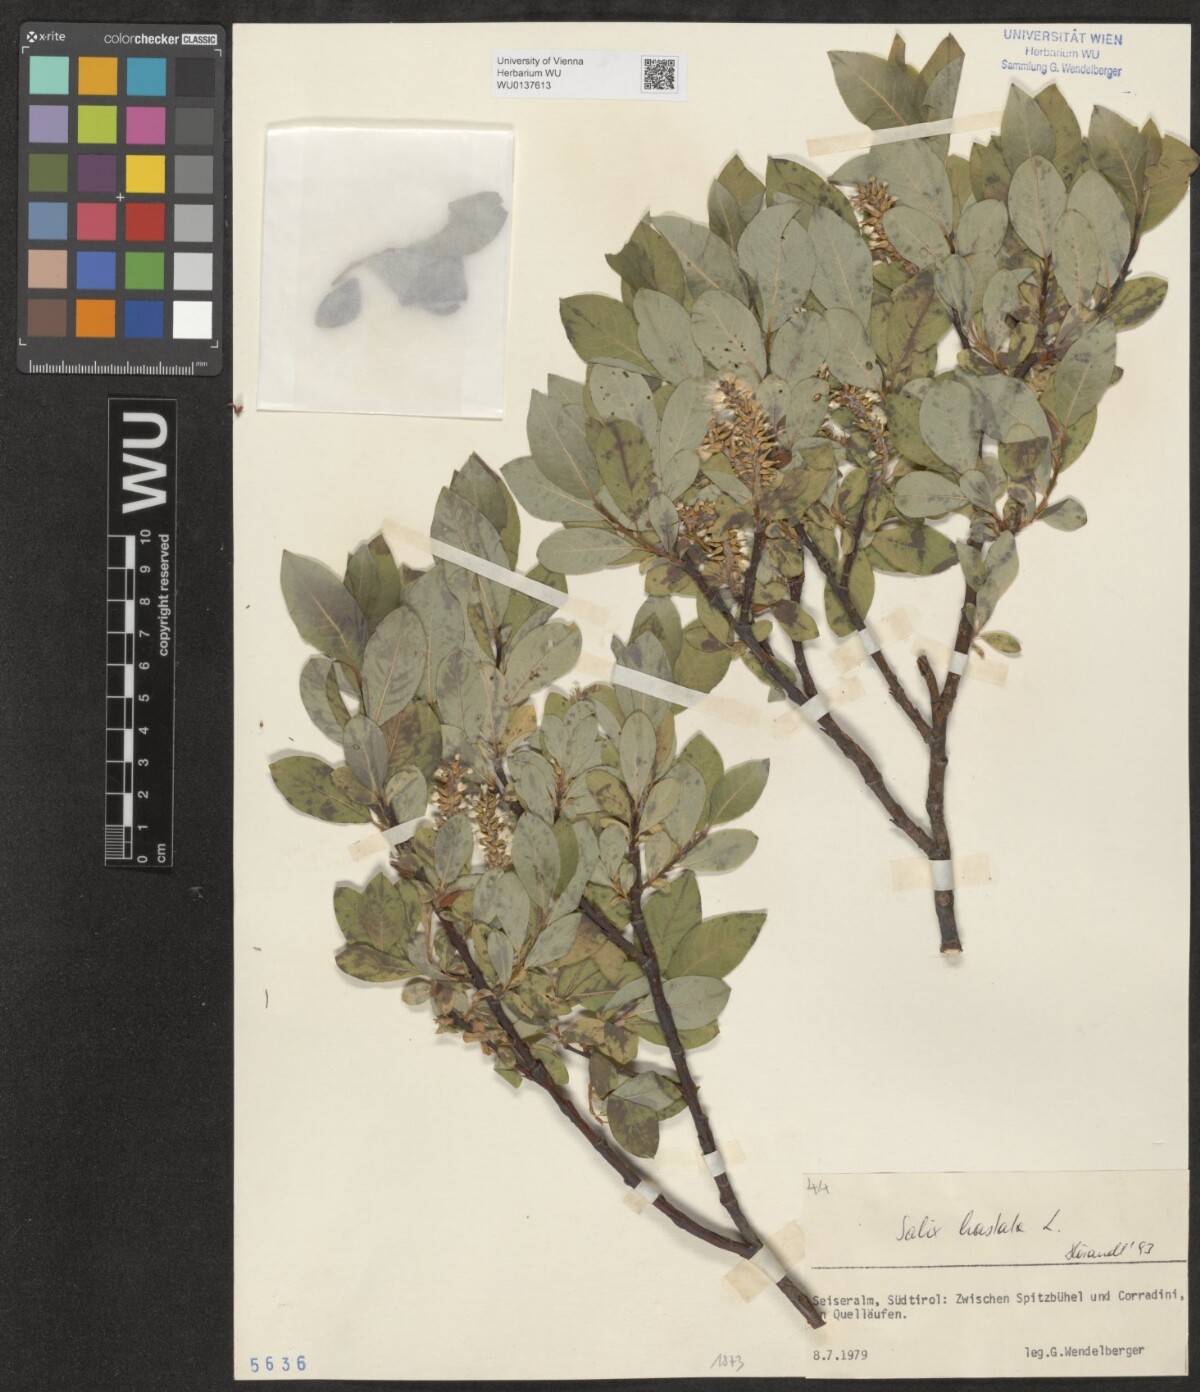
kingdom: Plantae
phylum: Tracheophyta
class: Magnoliopsida
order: Malpighiales
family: Salicaceae
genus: Salix
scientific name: Salix hastata
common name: Halberd willow
